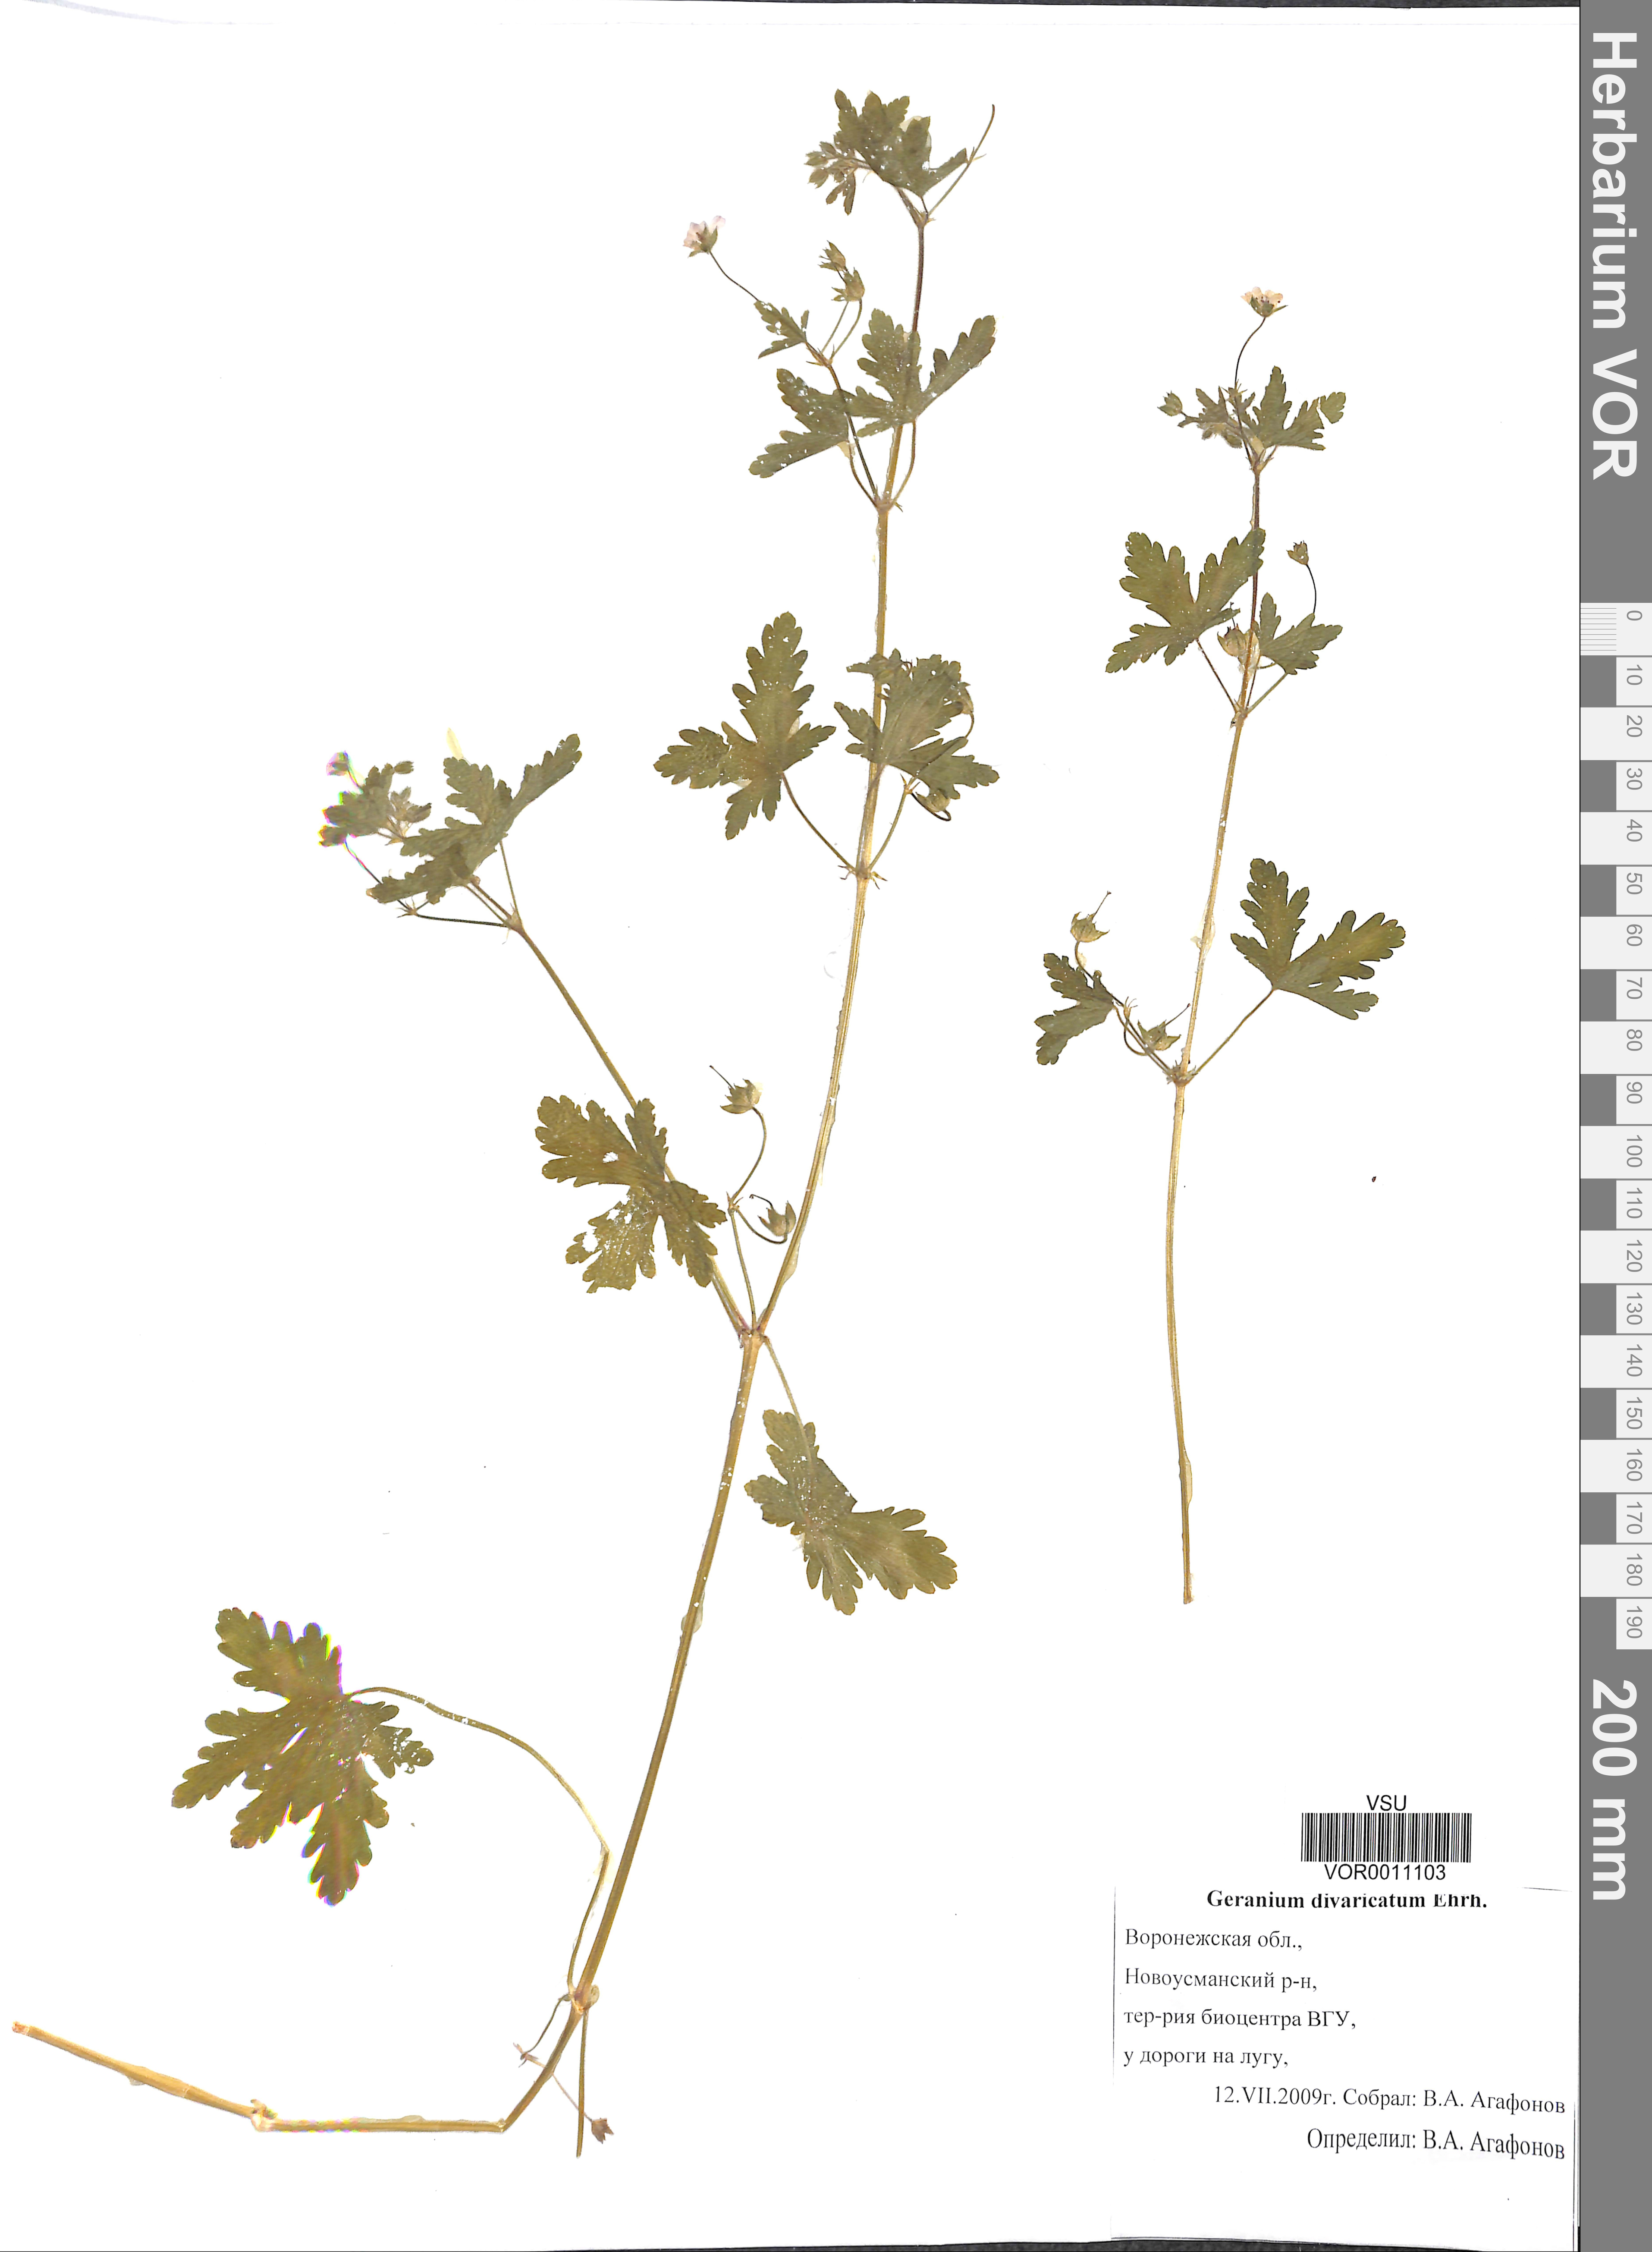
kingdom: Plantae
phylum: Tracheophyta
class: Magnoliopsida
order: Geraniales
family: Geraniaceae
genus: Geranium
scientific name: Geranium divaricatum
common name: Spreading crane's-bill
